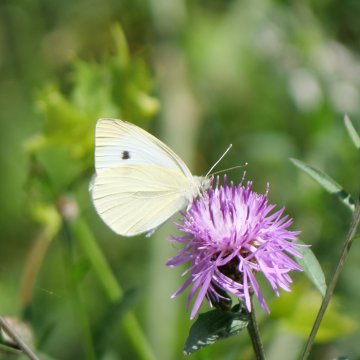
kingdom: Animalia
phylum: Arthropoda
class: Insecta
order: Lepidoptera
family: Pieridae
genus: Pieris
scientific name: Pieris rapae
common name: Cabbage White
